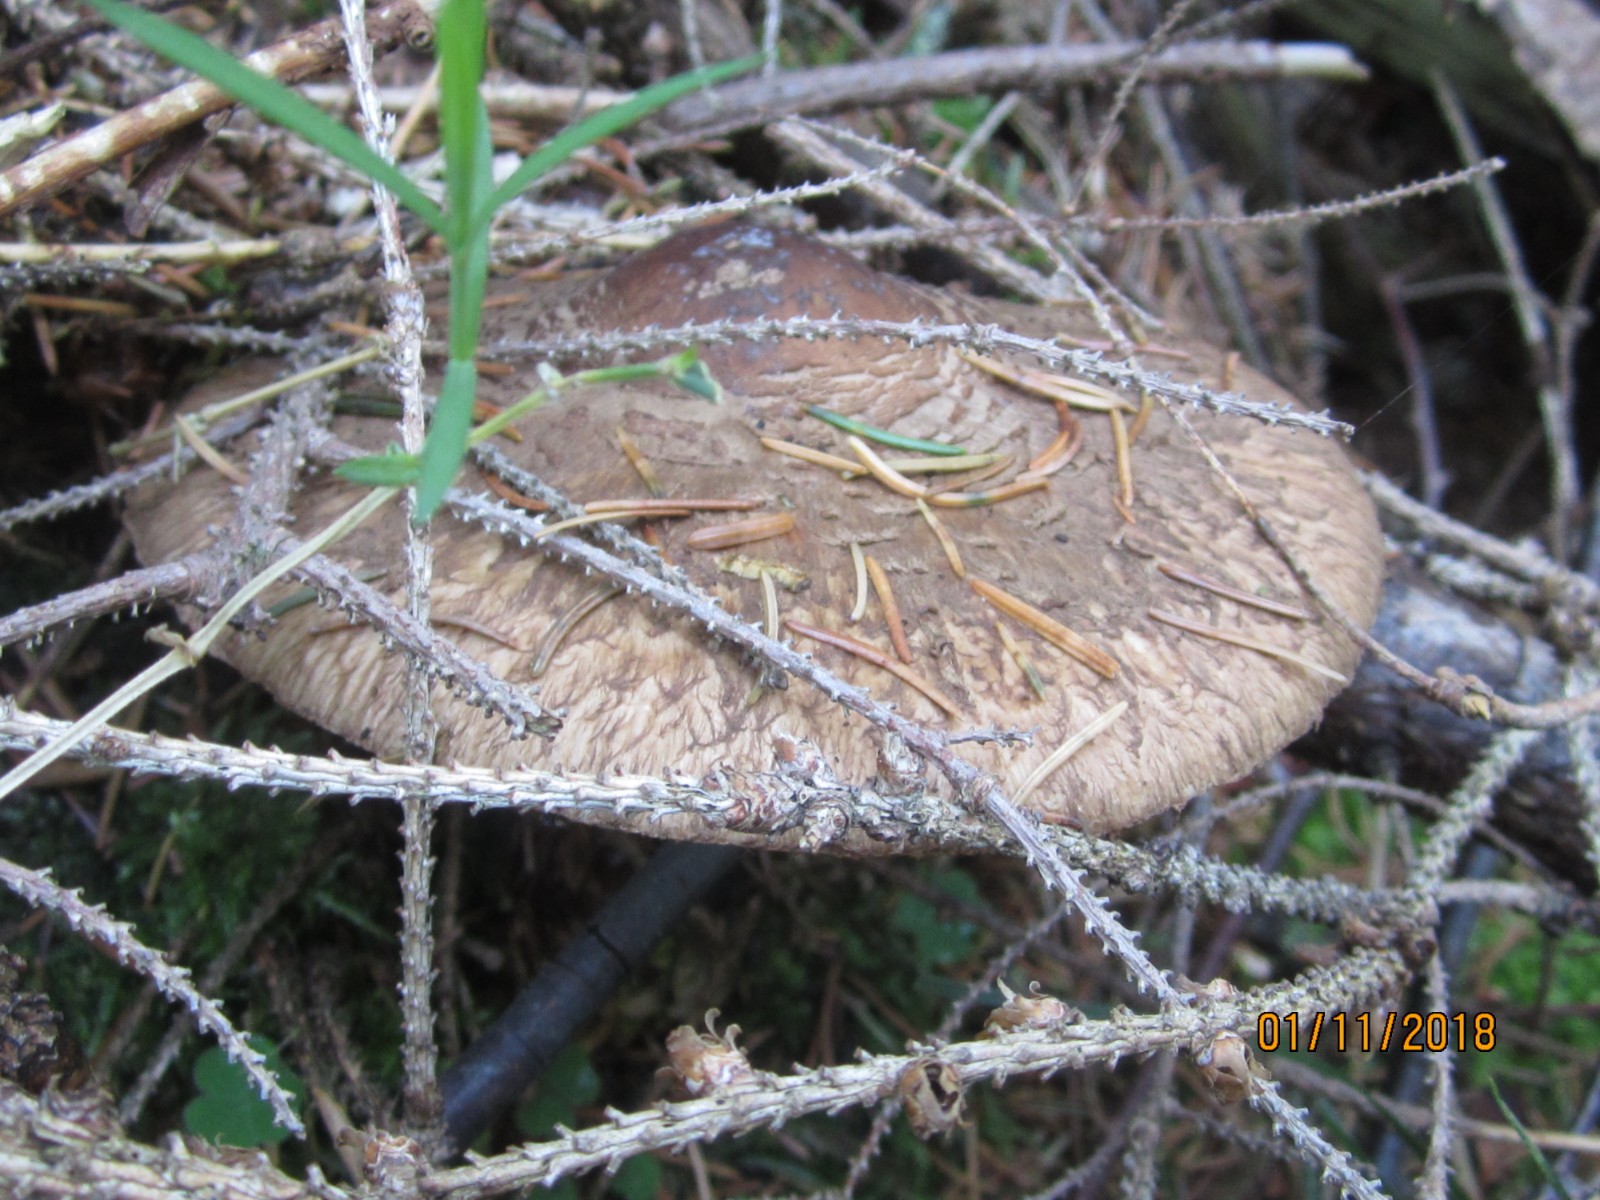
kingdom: Fungi
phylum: Basidiomycota
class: Agaricomycetes
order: Agaricales
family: Agaricaceae
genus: Chlorophyllum
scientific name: Chlorophyllum olivieri
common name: almindelig rabarberhat
